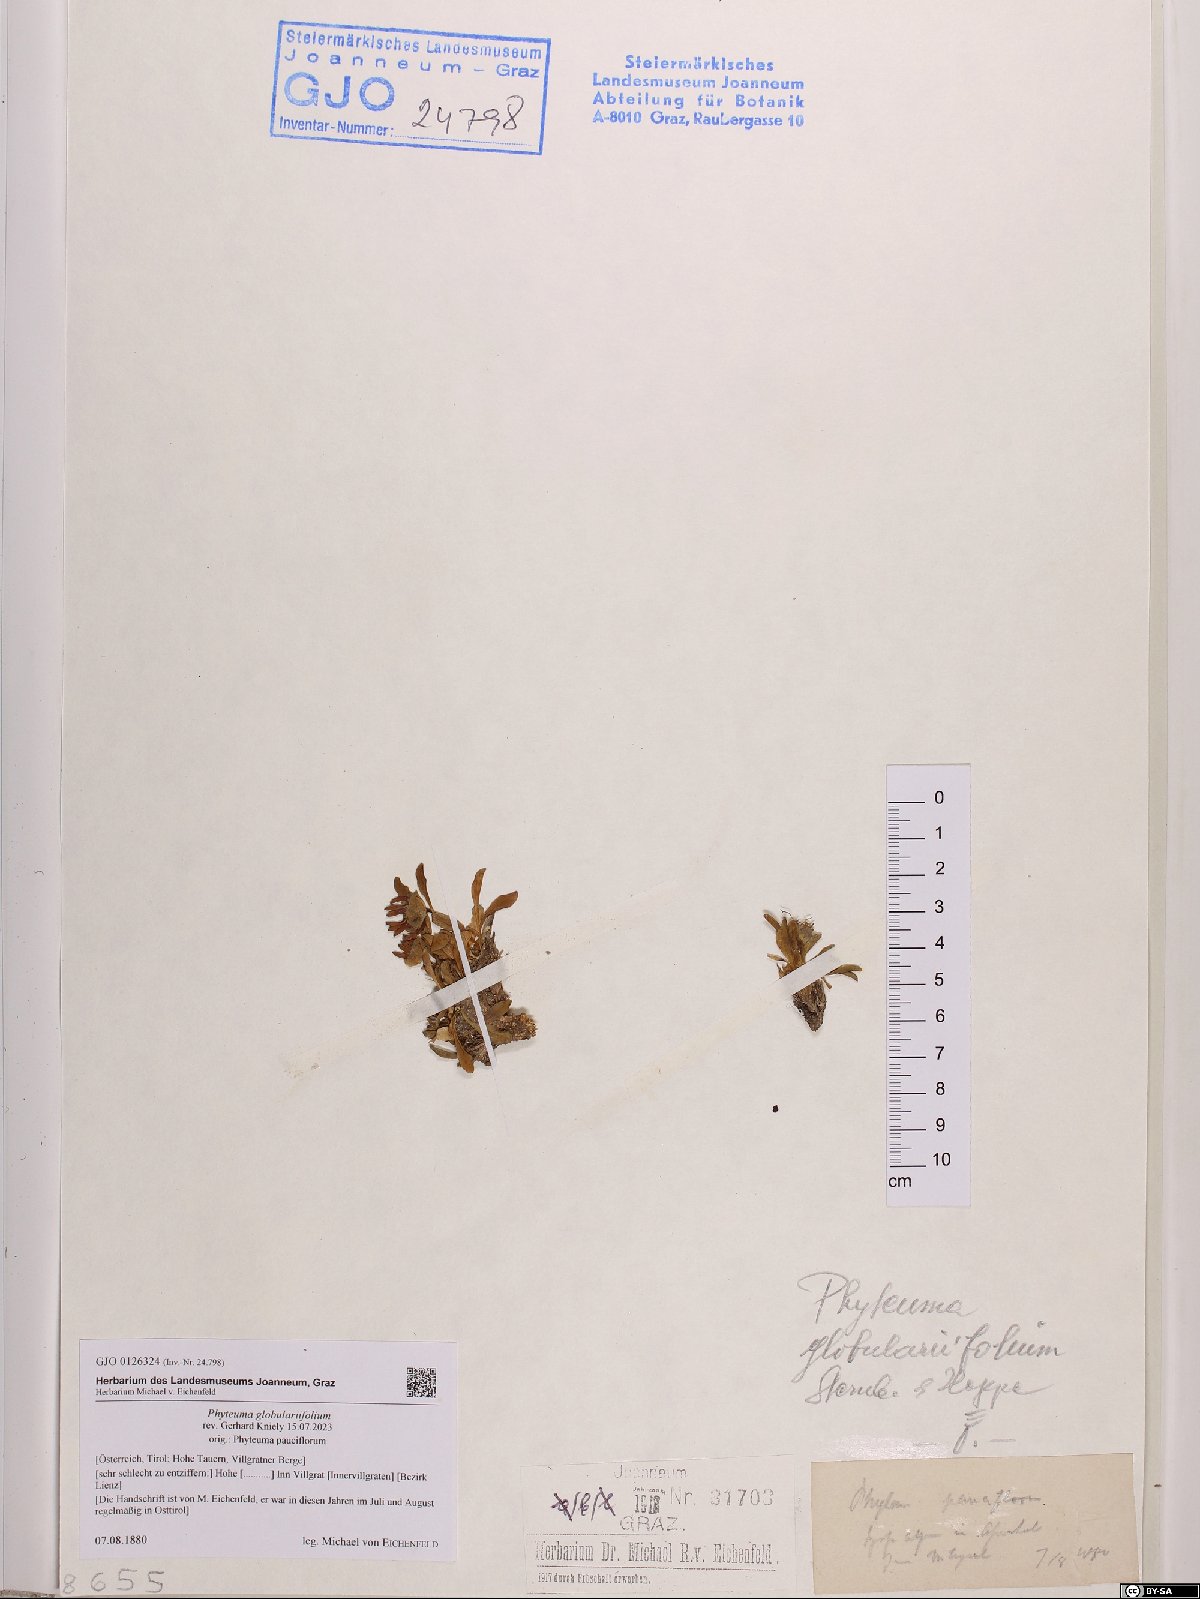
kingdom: Plantae
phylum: Tracheophyta
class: Magnoliopsida
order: Asterales
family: Campanulaceae
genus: Phyteuma
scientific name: Phyteuma globulariifolium
